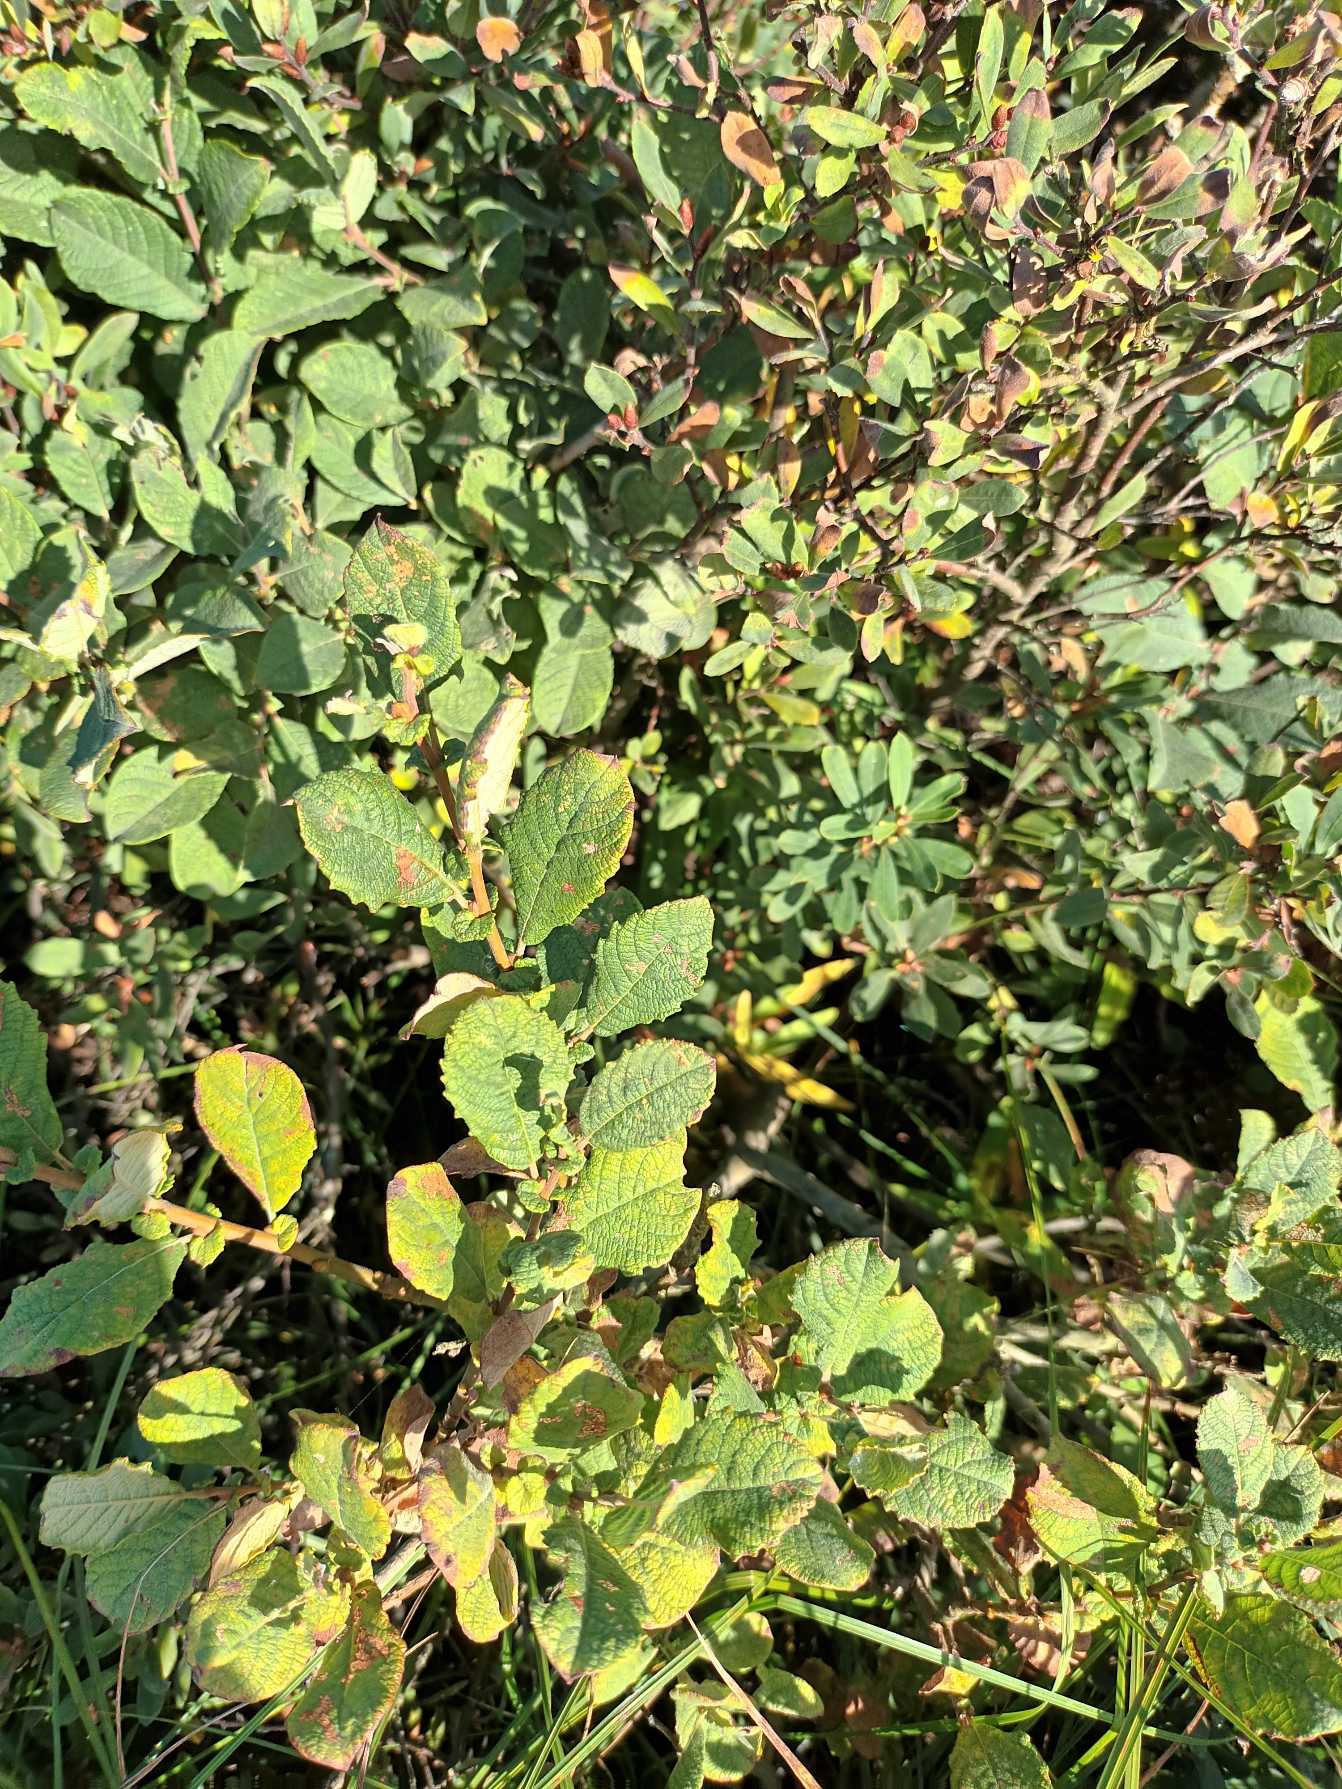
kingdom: Plantae
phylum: Tracheophyta
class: Magnoliopsida
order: Malpighiales
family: Salicaceae
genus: Salix
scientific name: Salix aurita
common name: Øret pil
